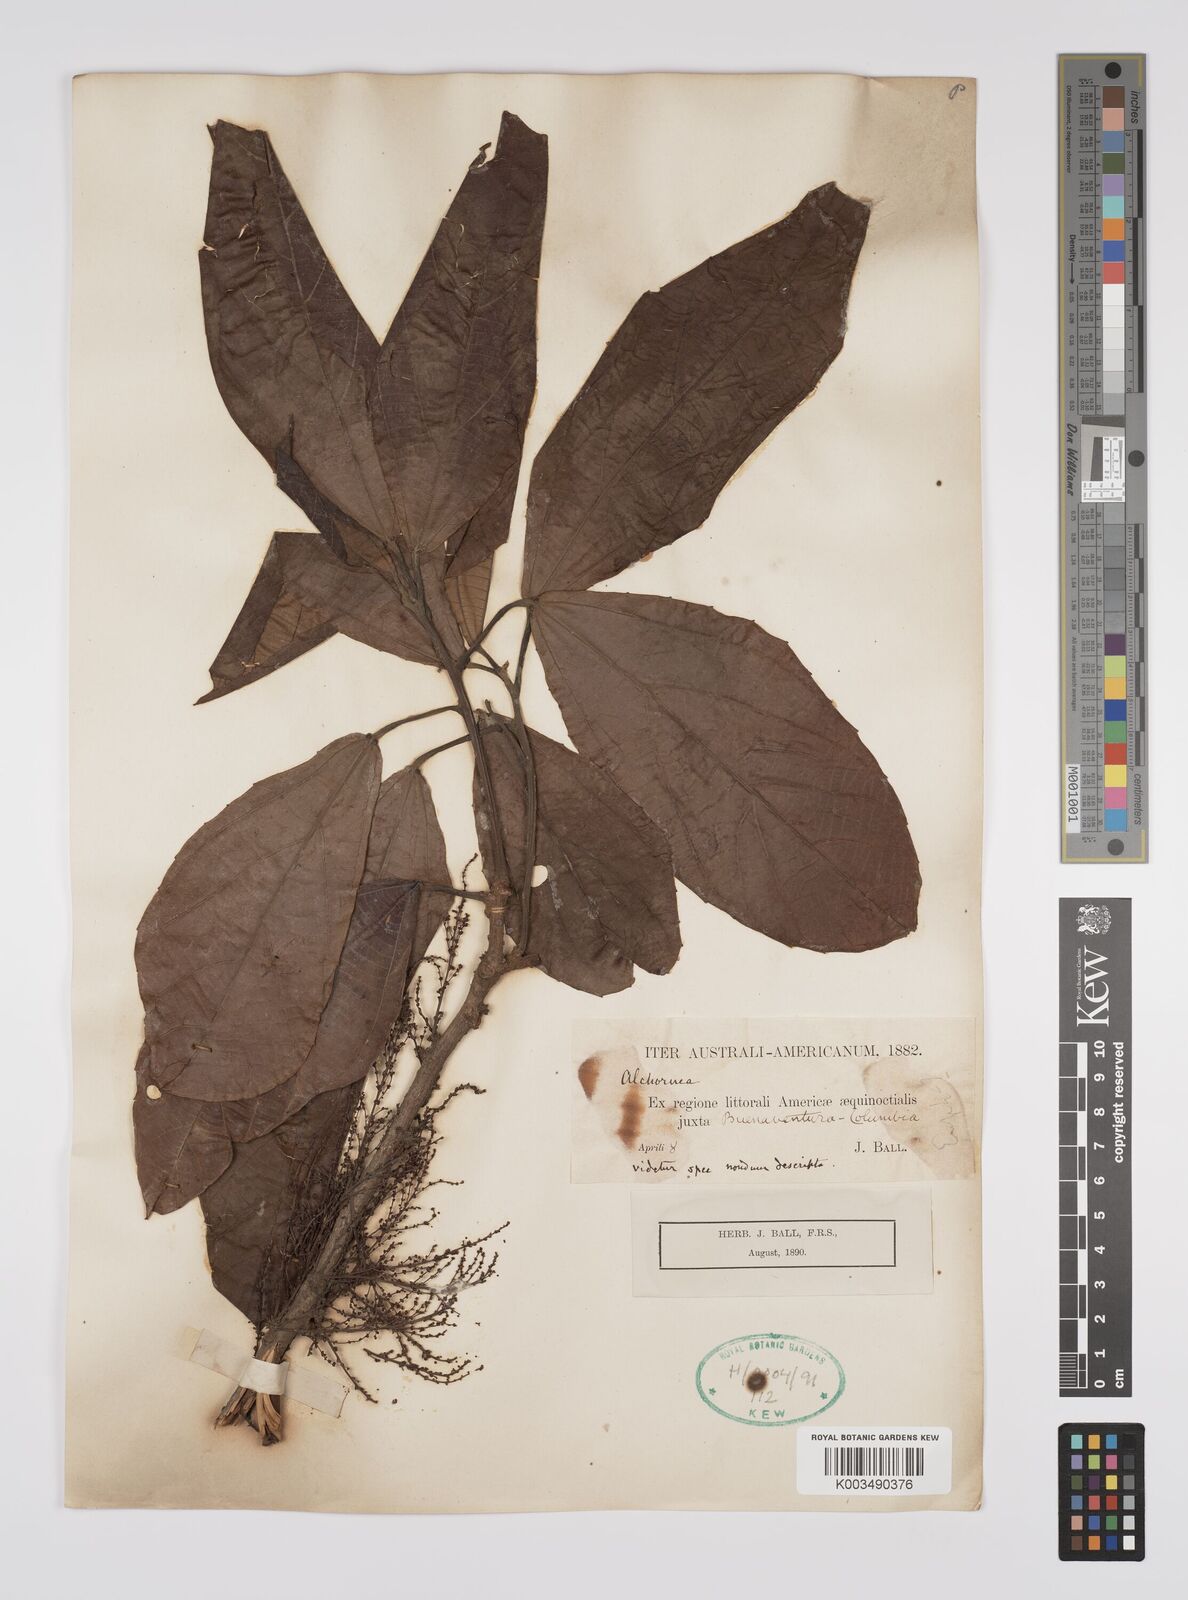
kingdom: Plantae
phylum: Tracheophyta
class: Magnoliopsida
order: Malpighiales
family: Euphorbiaceae
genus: Alchornea
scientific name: Alchornea
